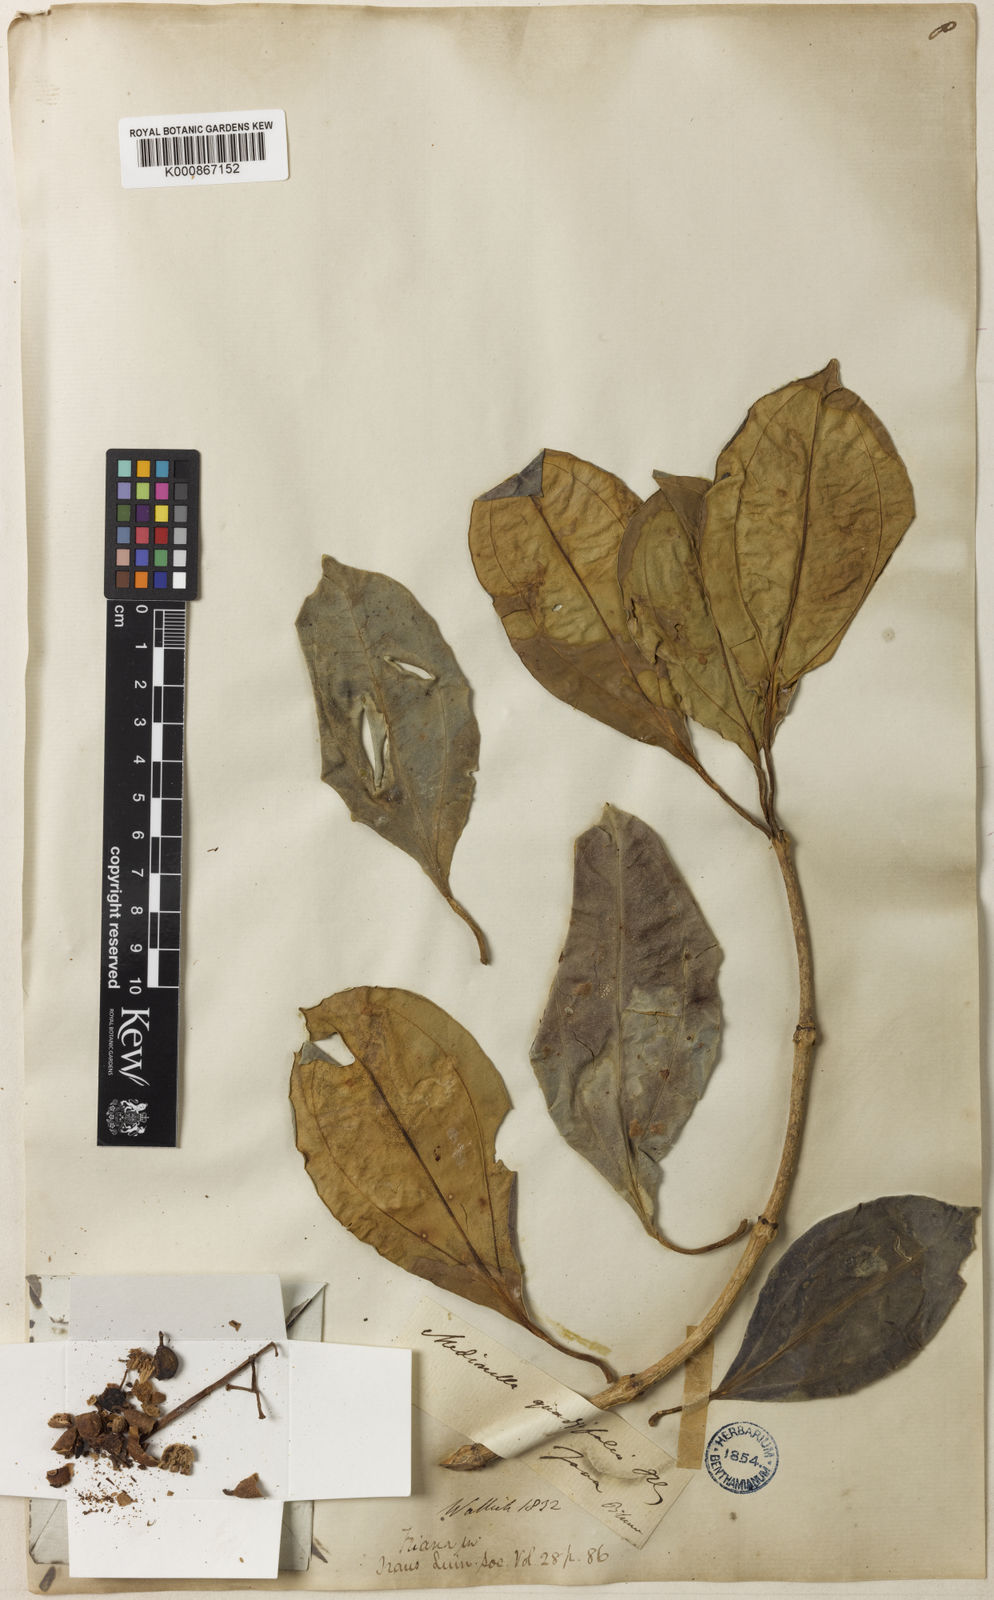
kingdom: Plantae
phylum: Tracheophyta
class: Magnoliopsida
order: Myrtales
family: Melastomataceae
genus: Medinilla
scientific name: Medinilla quadrifolia
